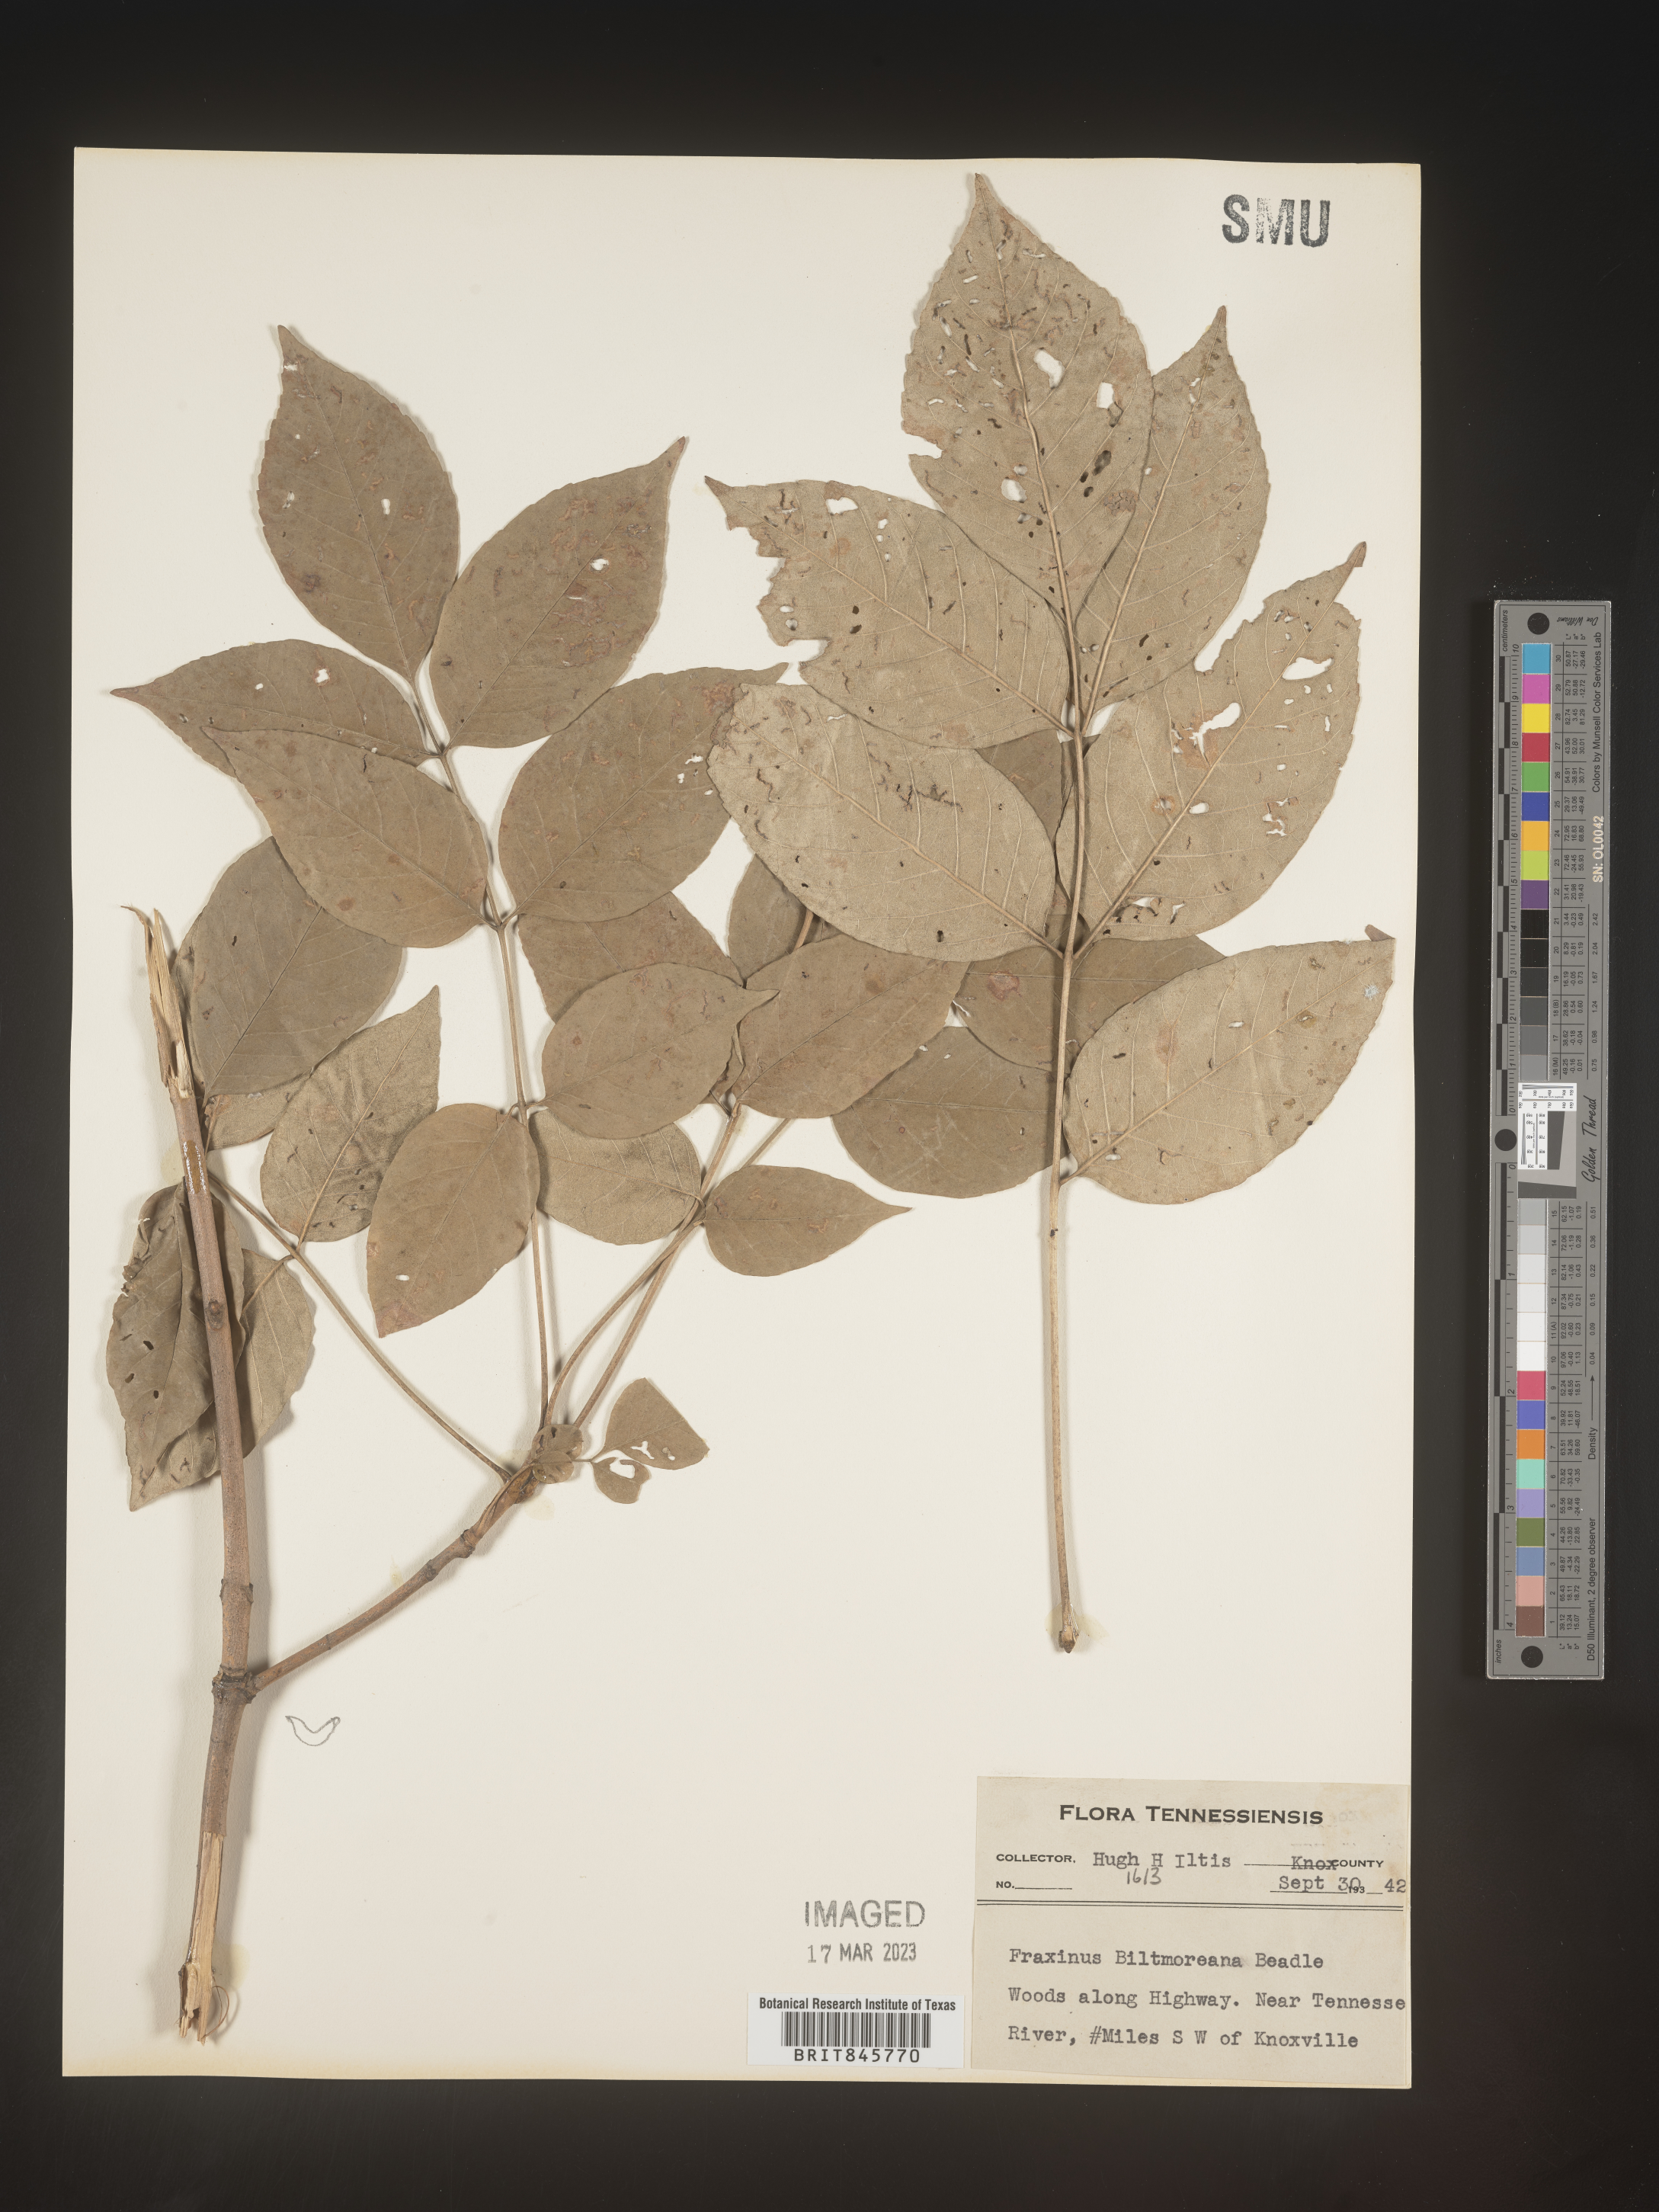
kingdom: Plantae
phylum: Tracheophyta
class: Magnoliopsida
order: Lamiales
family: Oleaceae
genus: Fraxinus
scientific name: Fraxinus americana
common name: White ash
